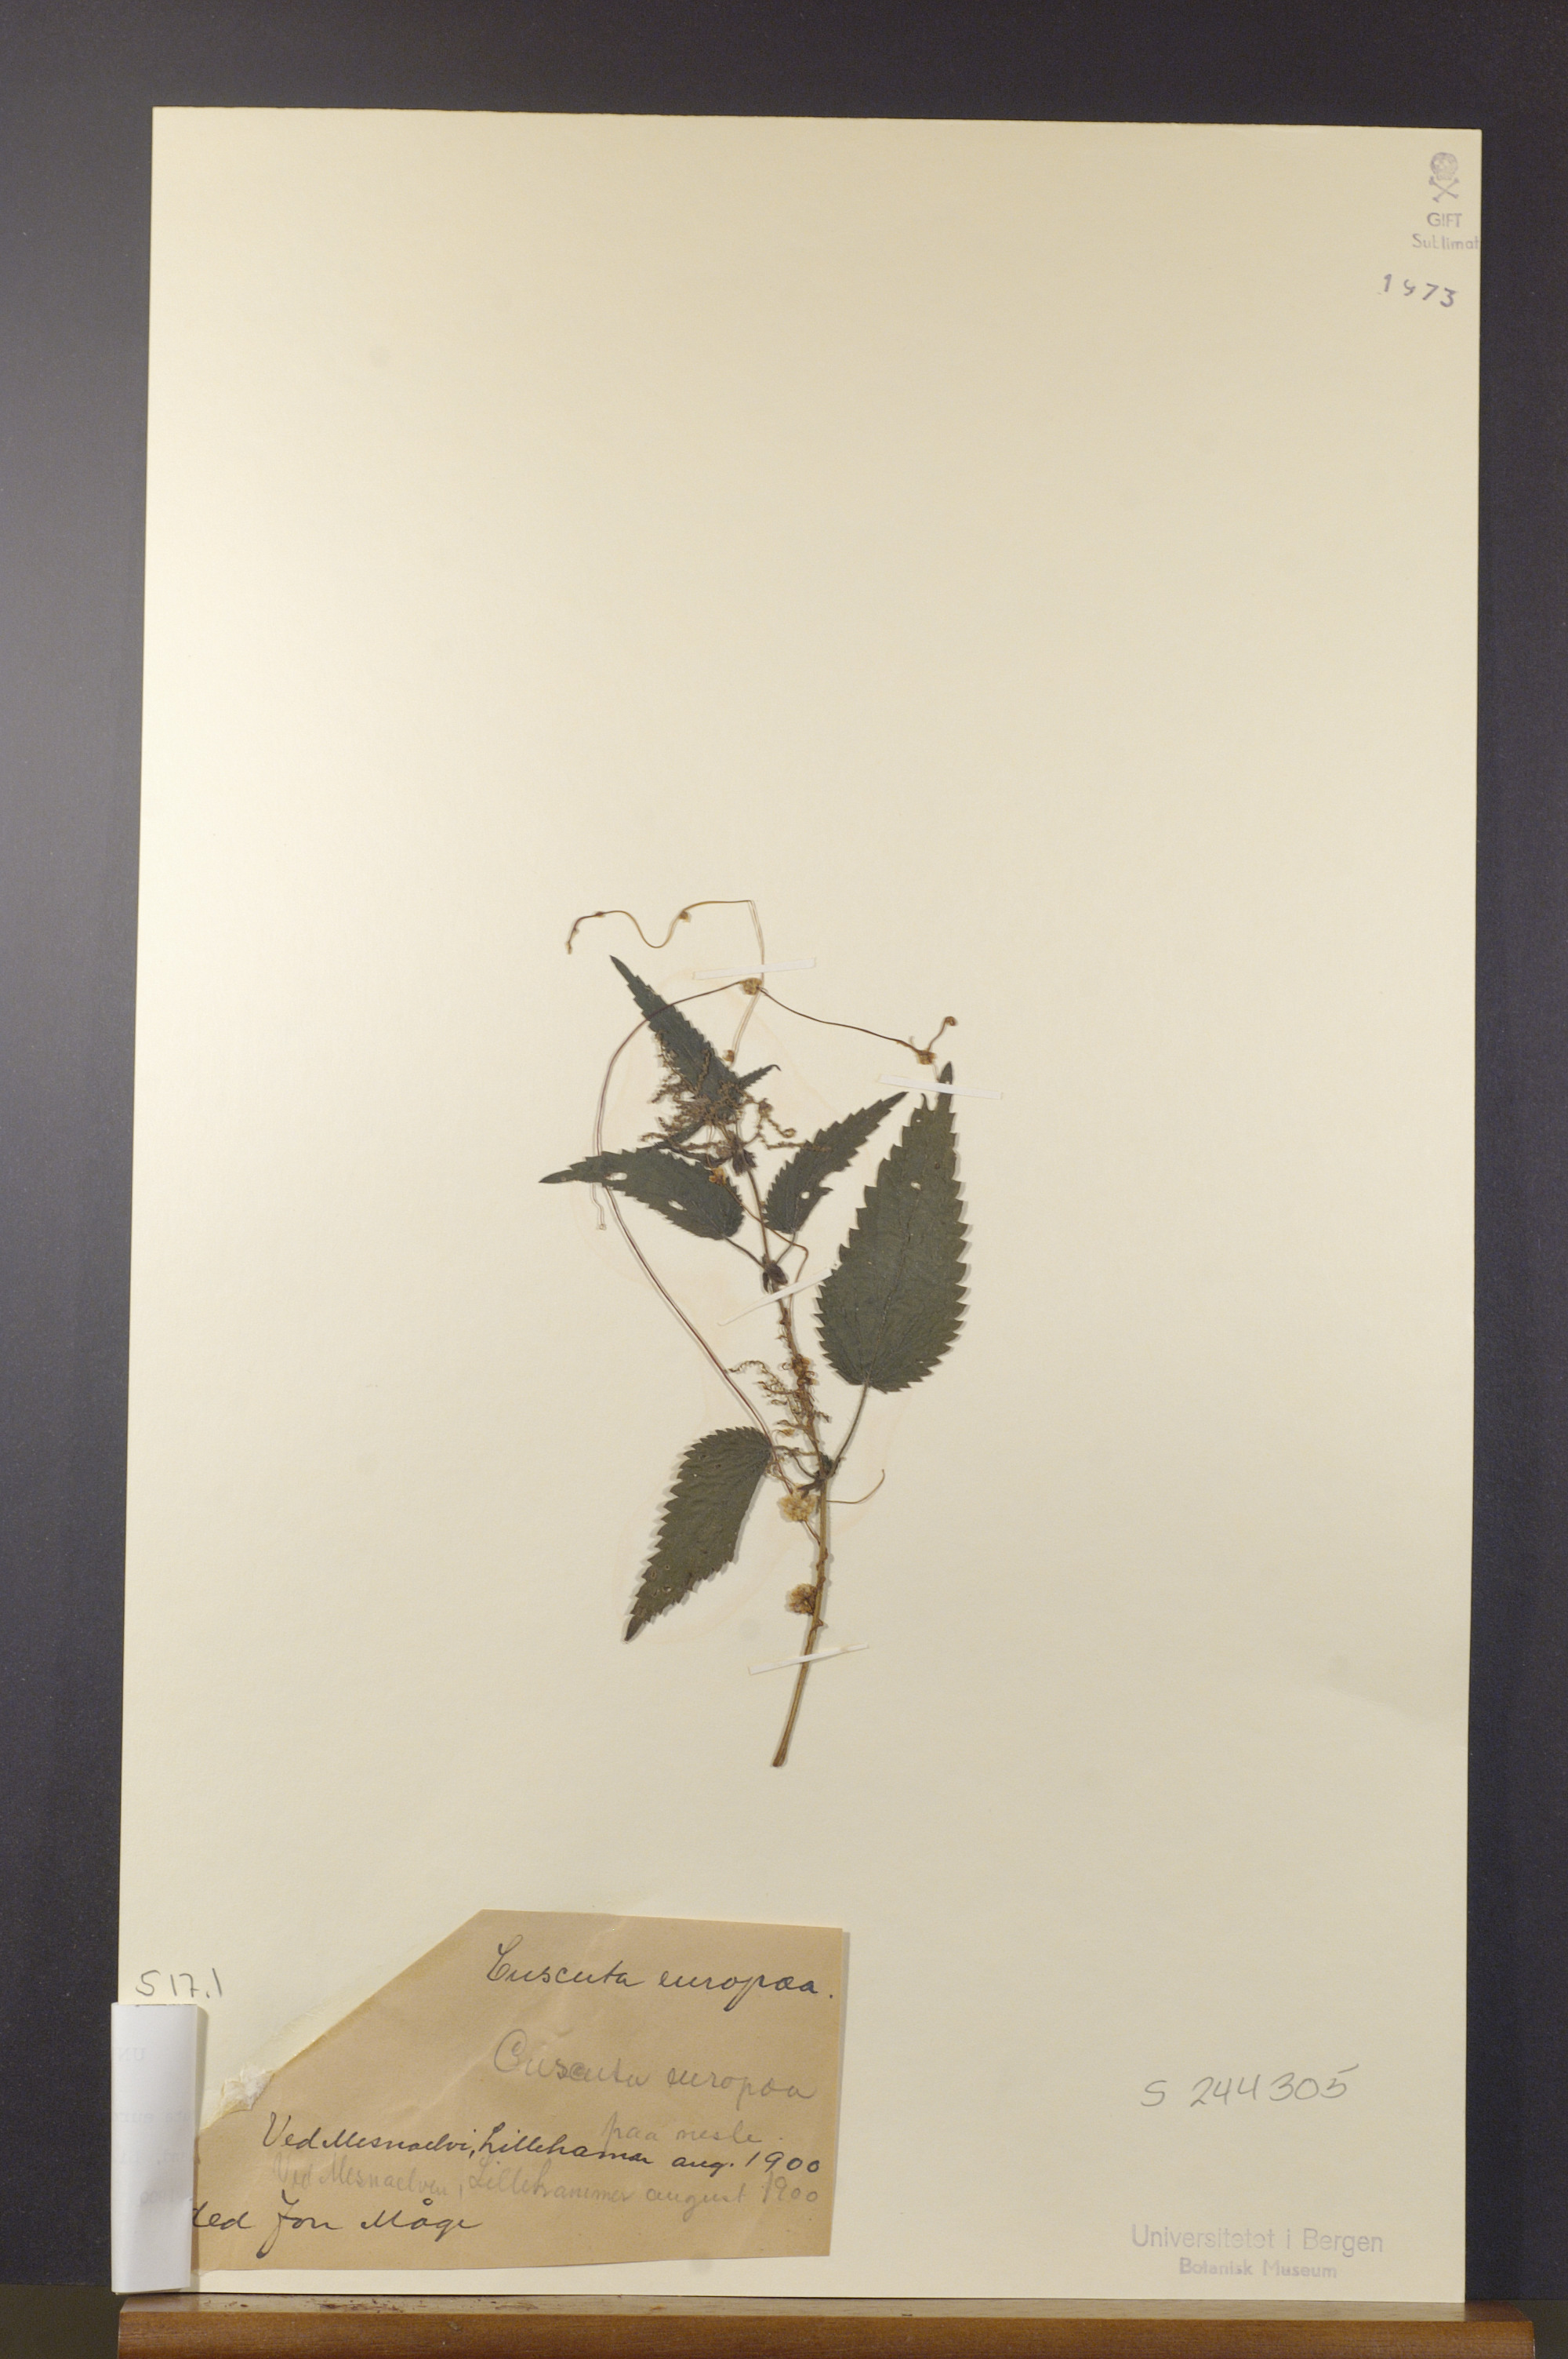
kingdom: Plantae
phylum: Tracheophyta
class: Magnoliopsida
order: Solanales
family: Convolvulaceae
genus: Cuscuta
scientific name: Cuscuta europaea
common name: Greater dodder
